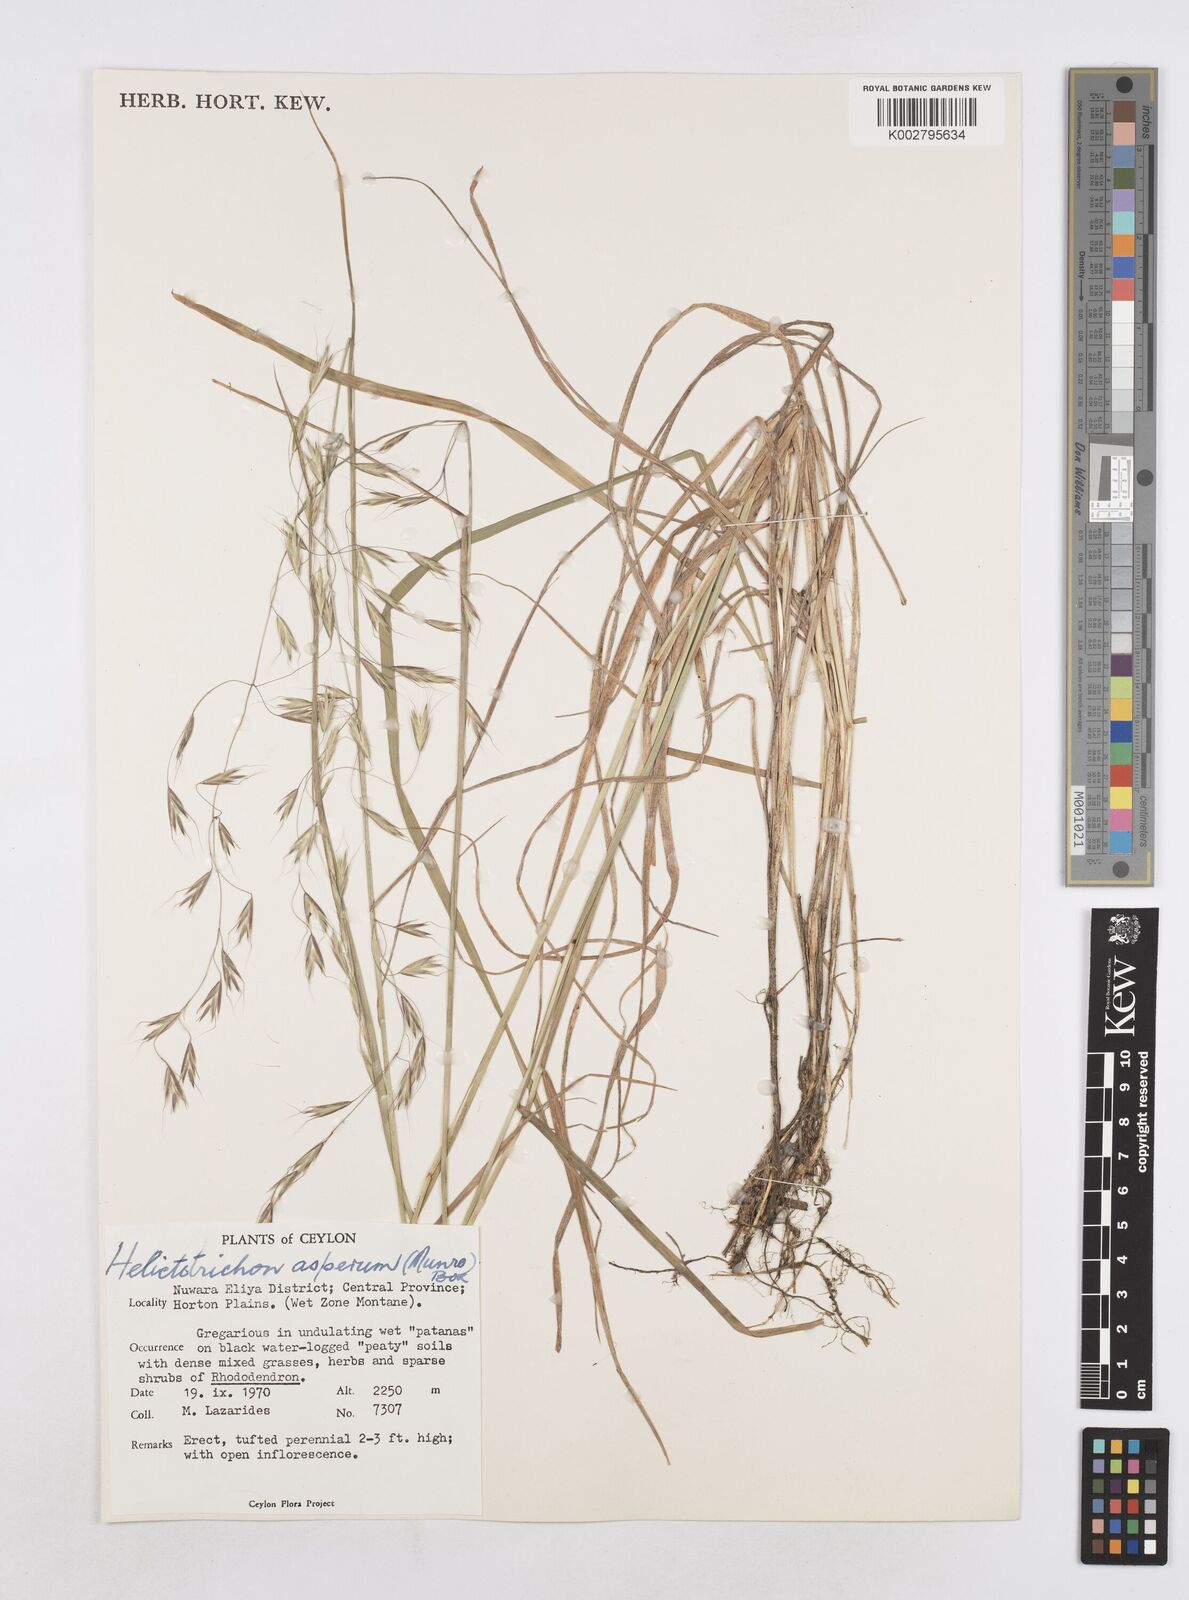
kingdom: Plantae
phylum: Tracheophyta
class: Liliopsida
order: Poales
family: Poaceae
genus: Trisetopsis
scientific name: Trisetopsis virescens
